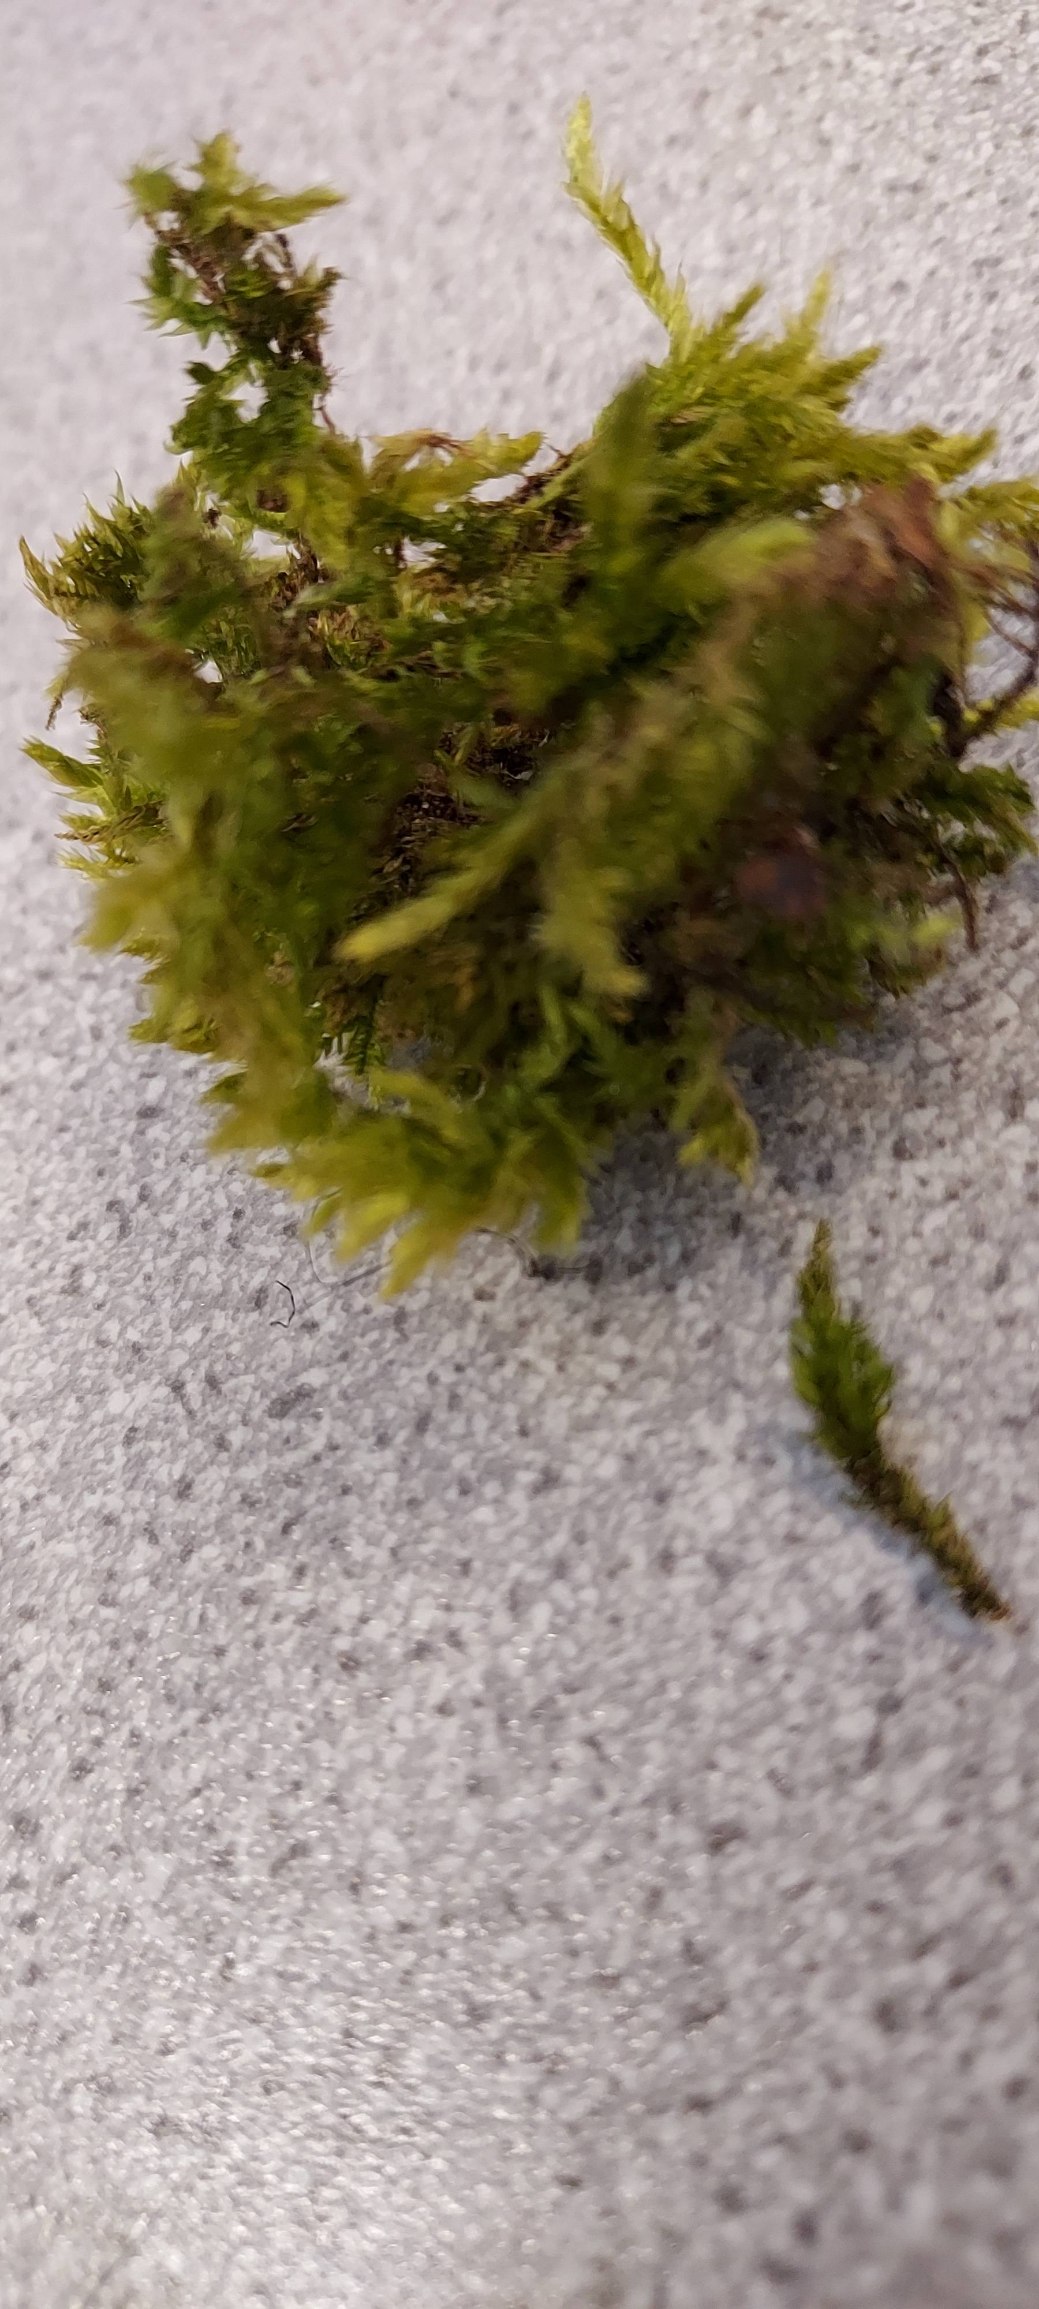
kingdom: Plantae
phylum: Bryophyta
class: Bryopsida
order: Hypnales
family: Brachytheciaceae
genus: Brachythecium
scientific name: Brachythecium rutabulum
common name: Almindelig kortkapsel
